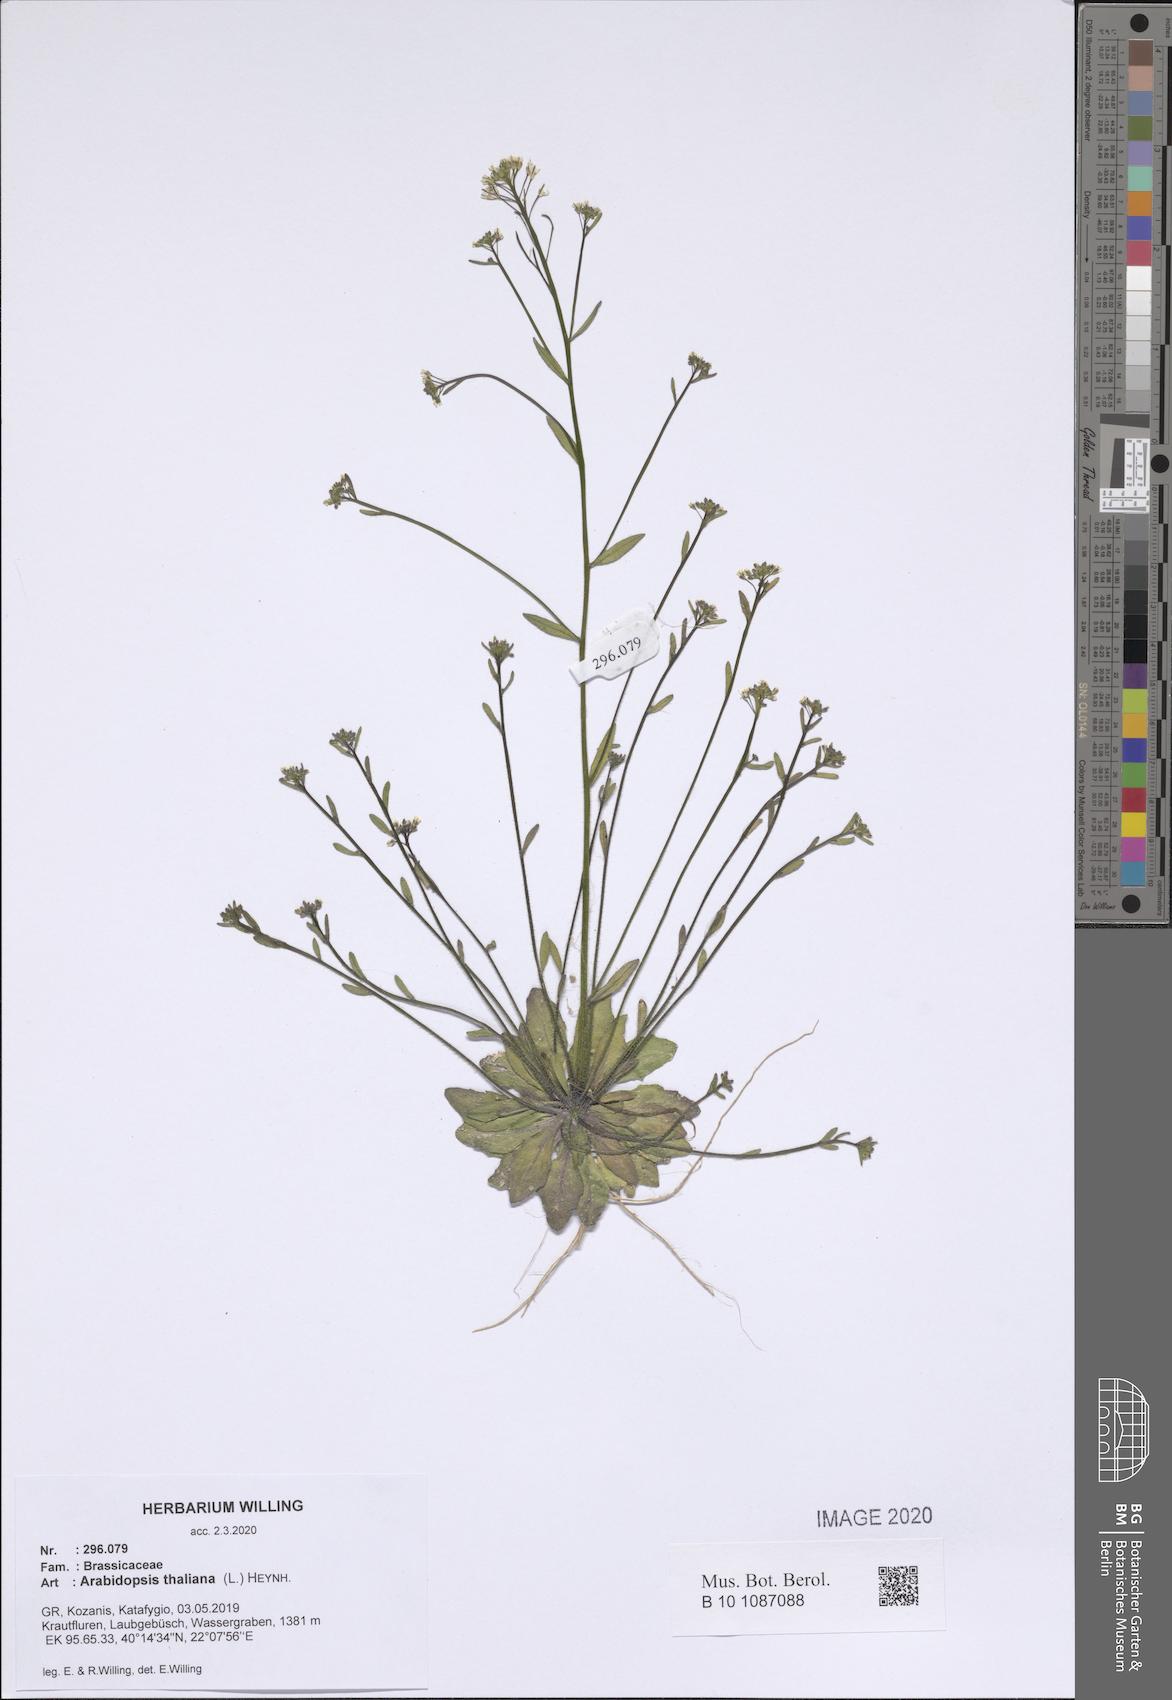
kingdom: Plantae
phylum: Tracheophyta
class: Magnoliopsida
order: Brassicales
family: Brassicaceae
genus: Arabidopsis
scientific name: Arabidopsis thaliana
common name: Thale cress
